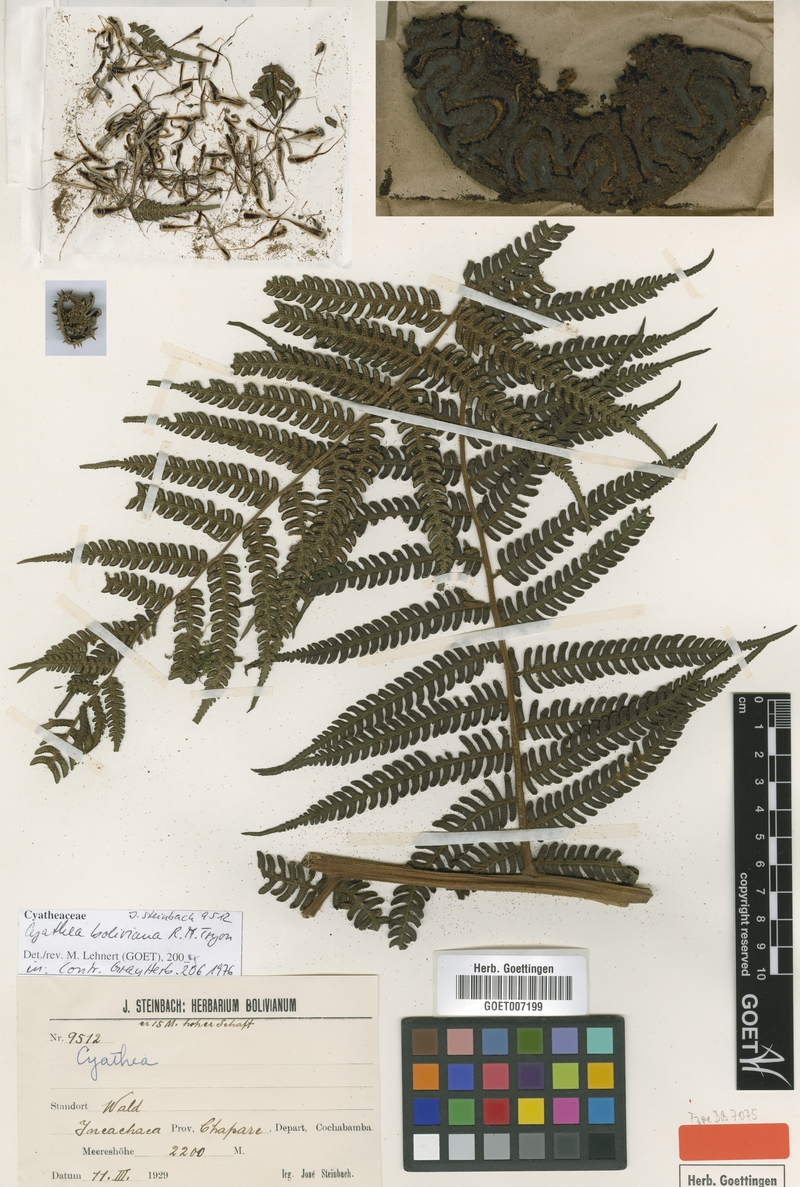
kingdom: Plantae
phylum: Tracheophyta
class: Polypodiopsida
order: Cyatheales
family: Cyatheaceae
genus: Cyathea
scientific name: Cyathea ruiziana
